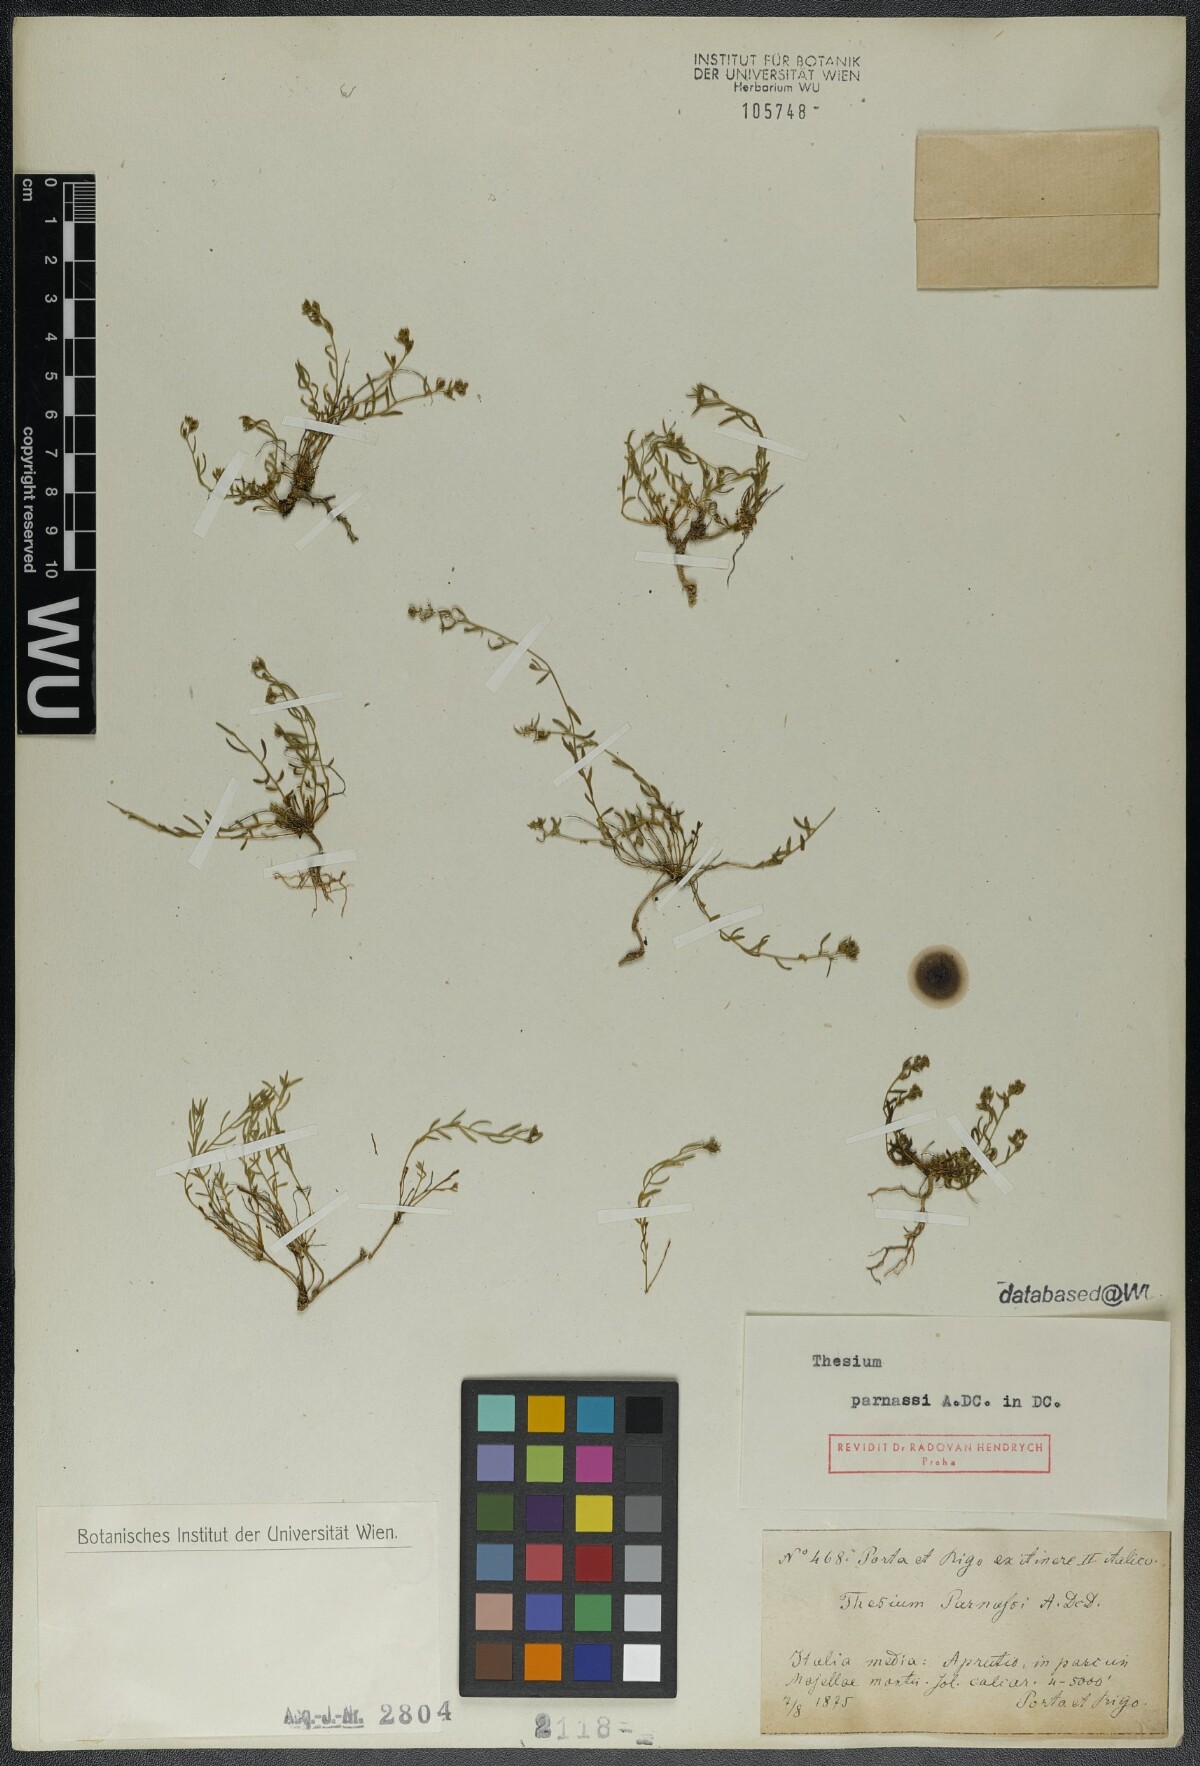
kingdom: Plantae
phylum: Tracheophyta
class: Magnoliopsida
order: Santalales
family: Thesiaceae
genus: Thesium
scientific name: Thesium parnassi
